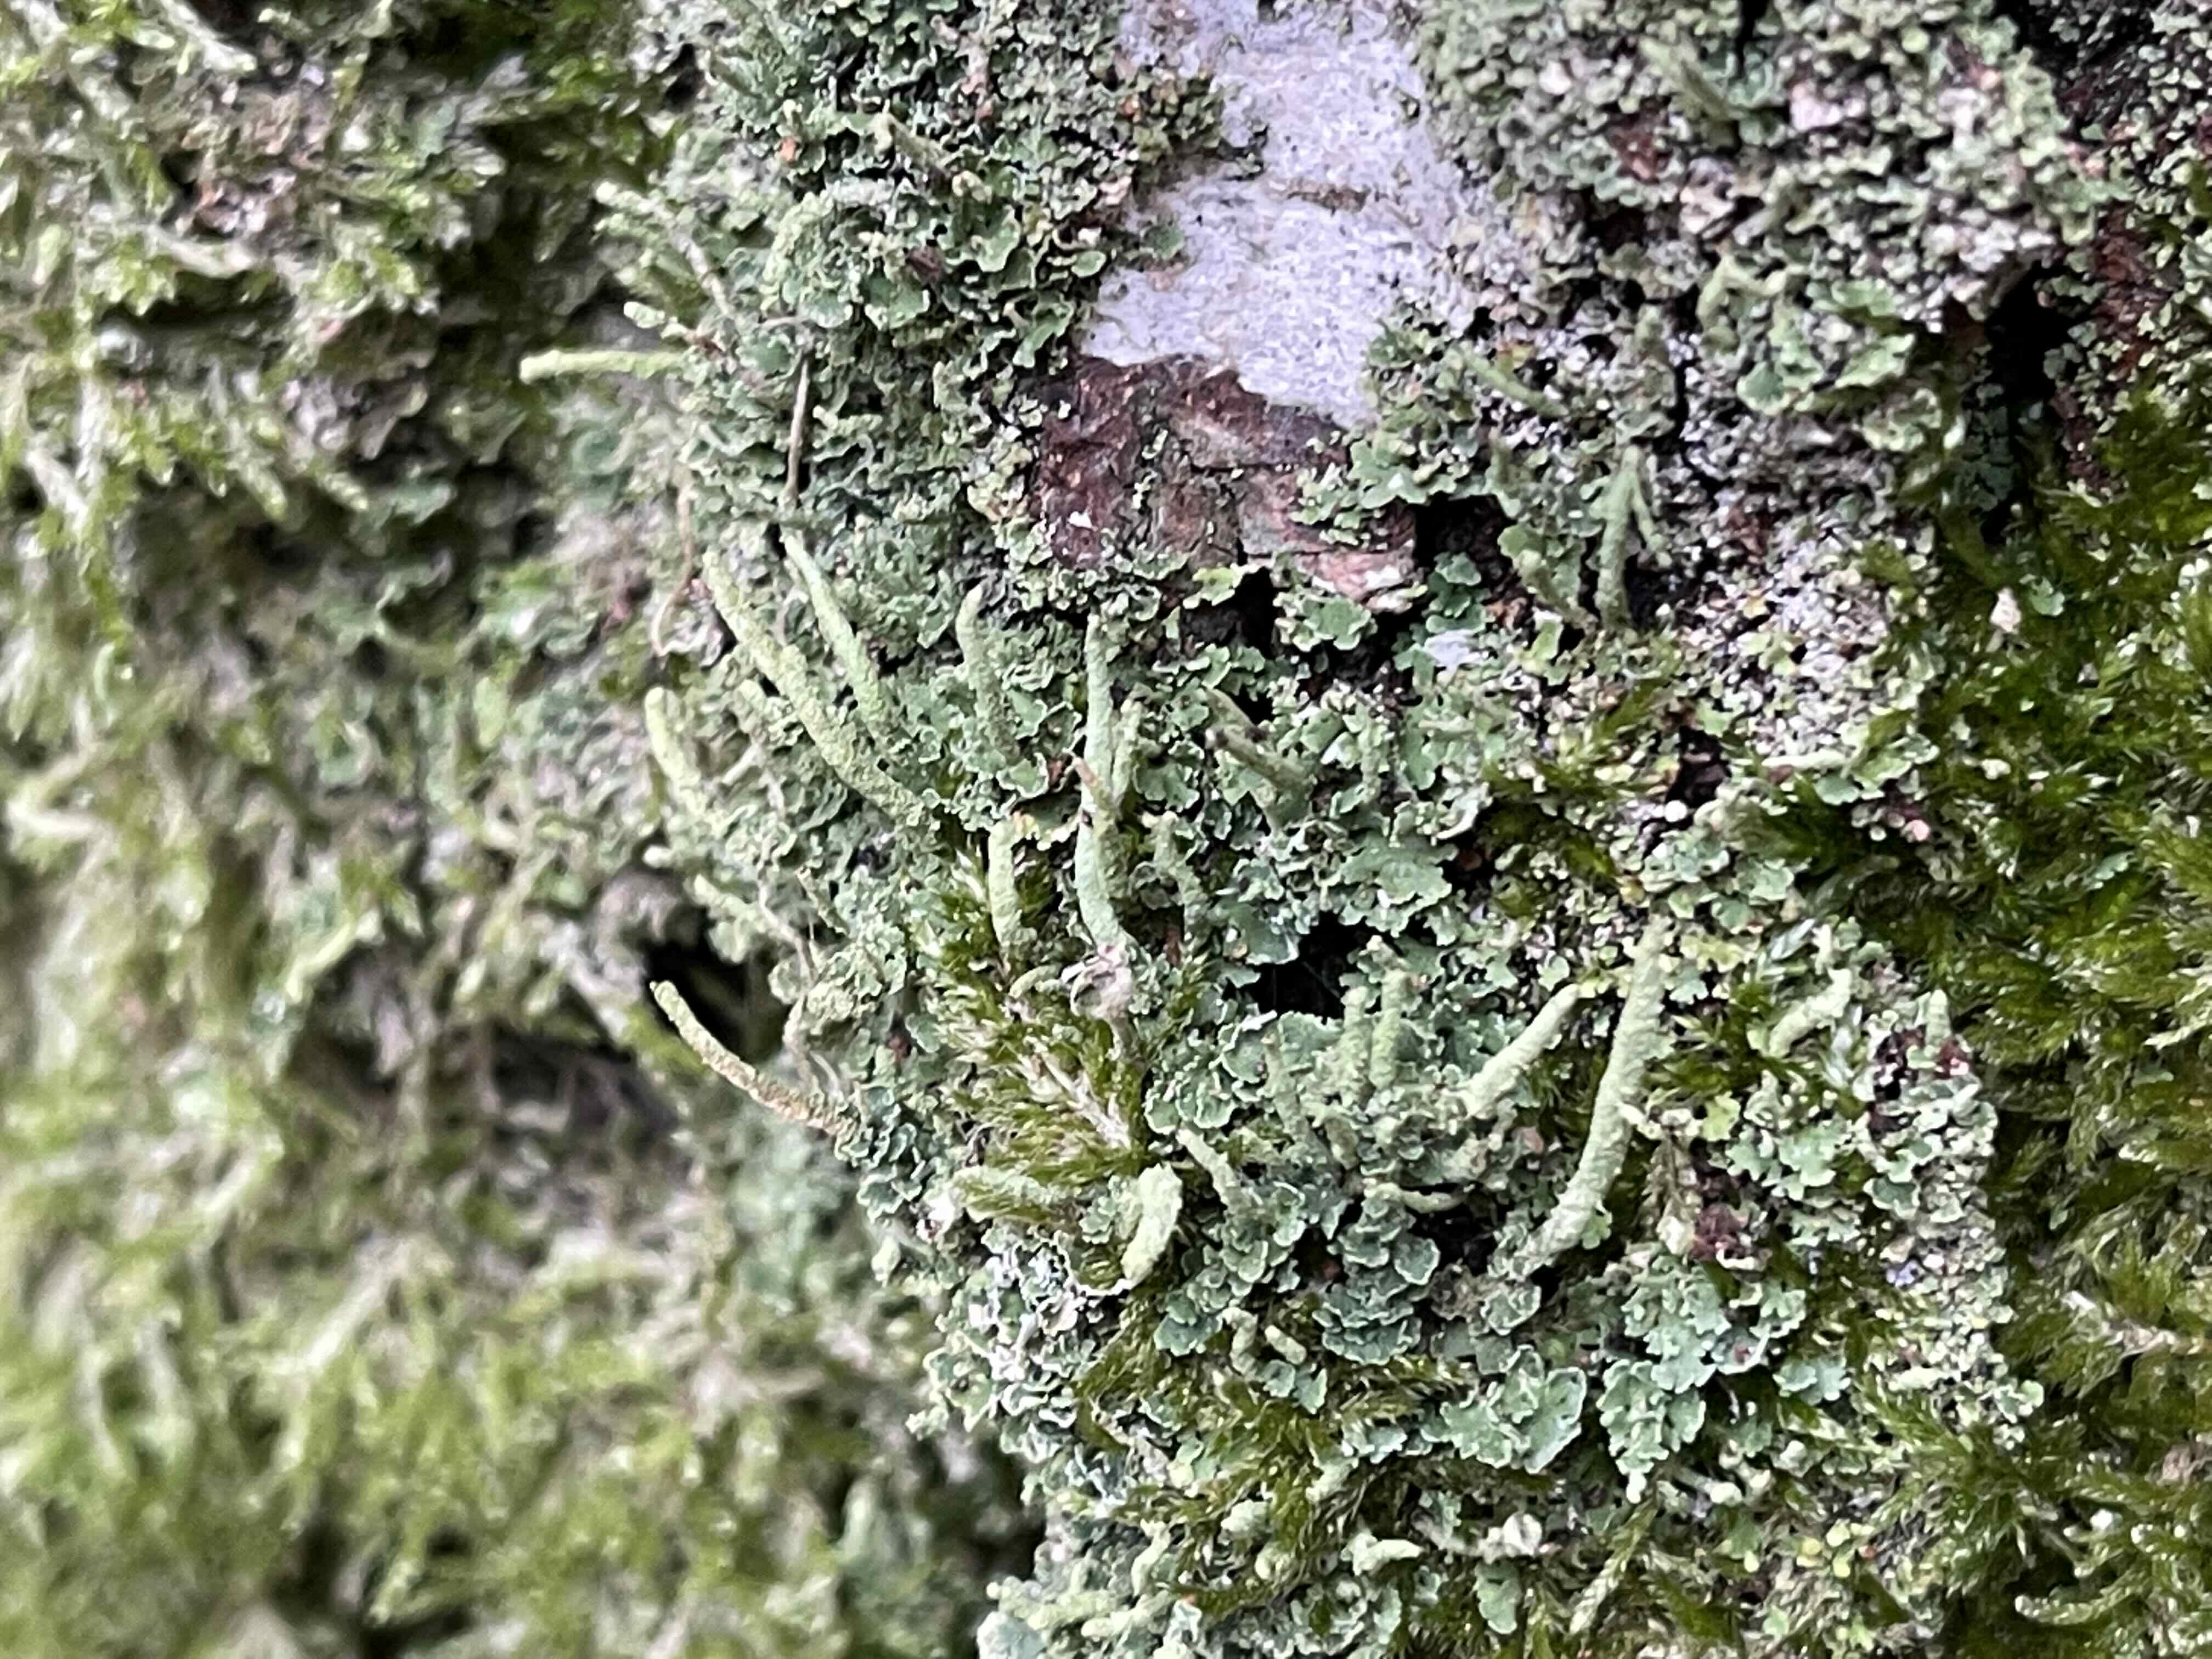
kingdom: Fungi
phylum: Ascomycota
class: Lecanoromycetes
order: Lecanorales
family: Cladoniaceae
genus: Cladonia
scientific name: Cladonia coniocraea
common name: træfods-bægerlav
